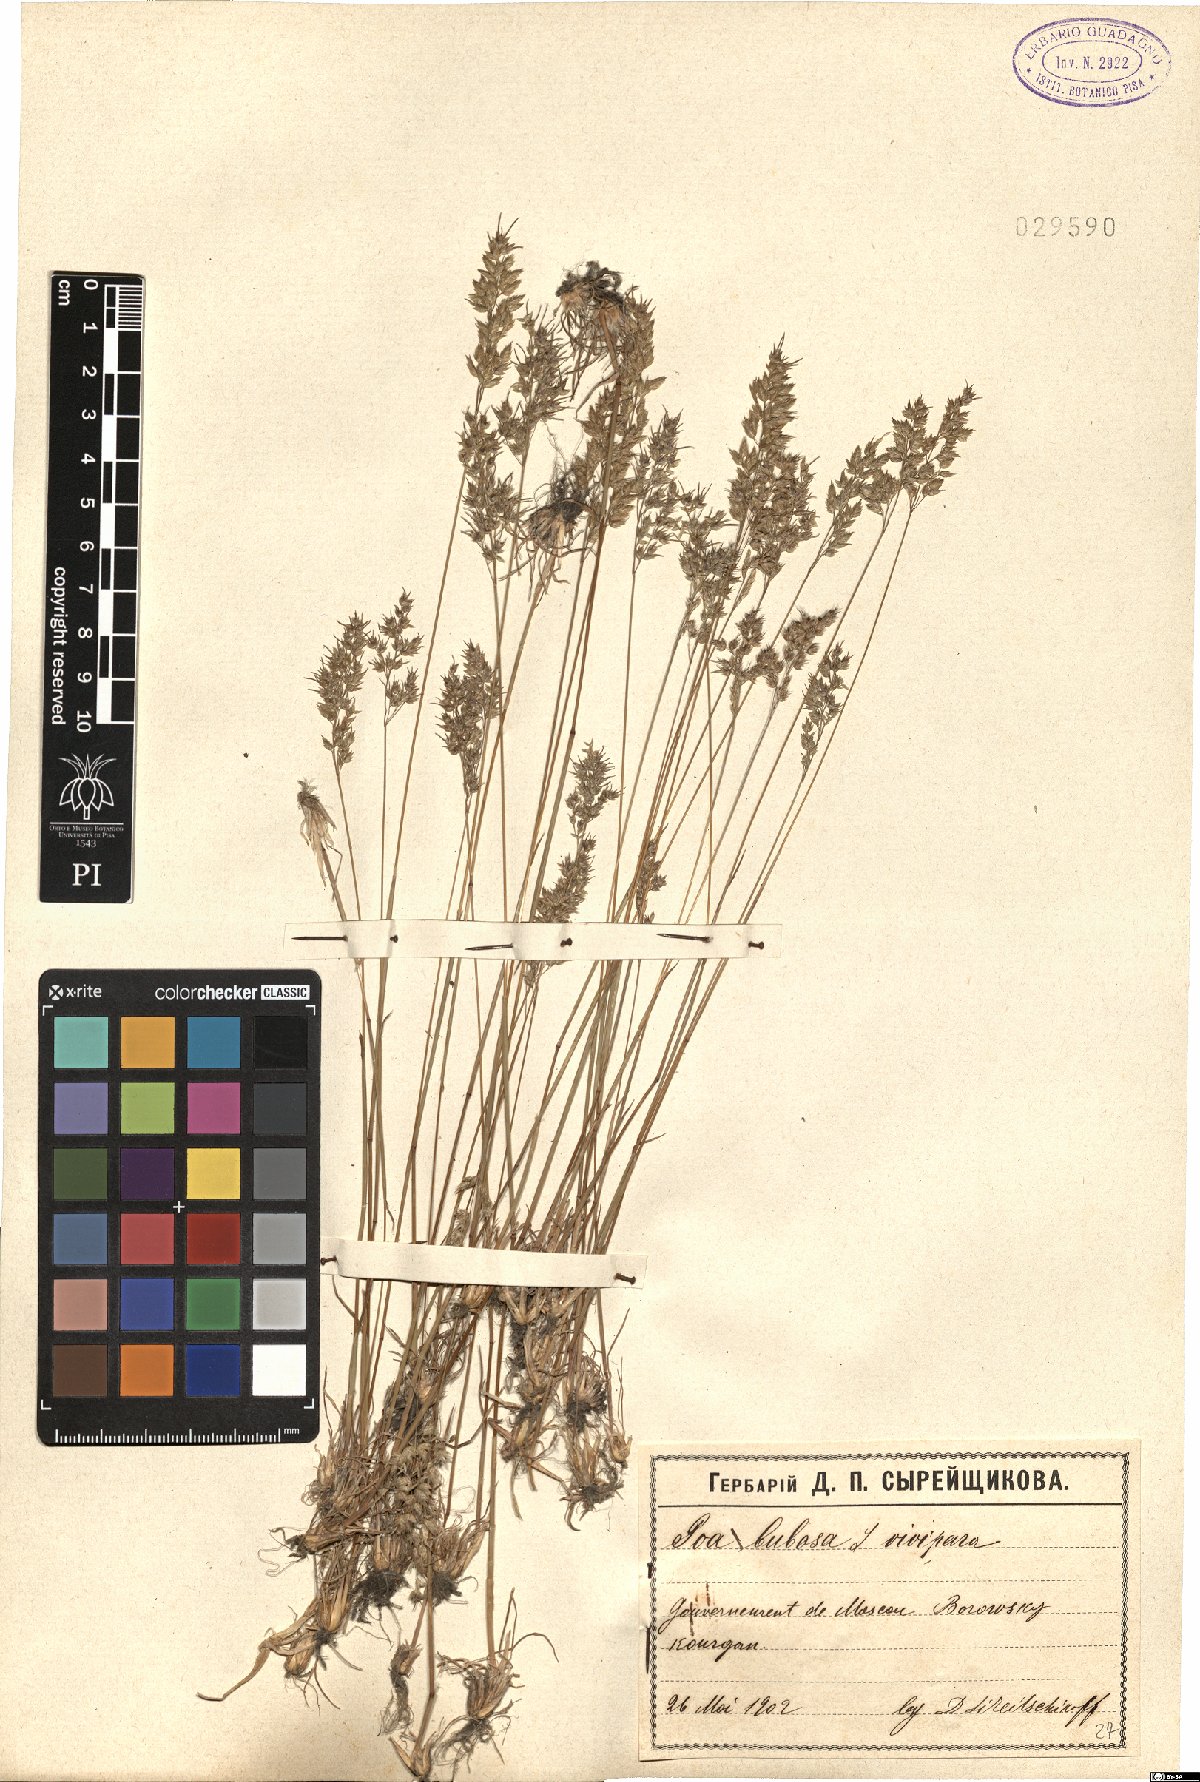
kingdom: Plantae
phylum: Tracheophyta
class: Liliopsida
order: Poales
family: Poaceae
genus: Poa
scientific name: Poa bulbosa
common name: Bulbous bluegrass
